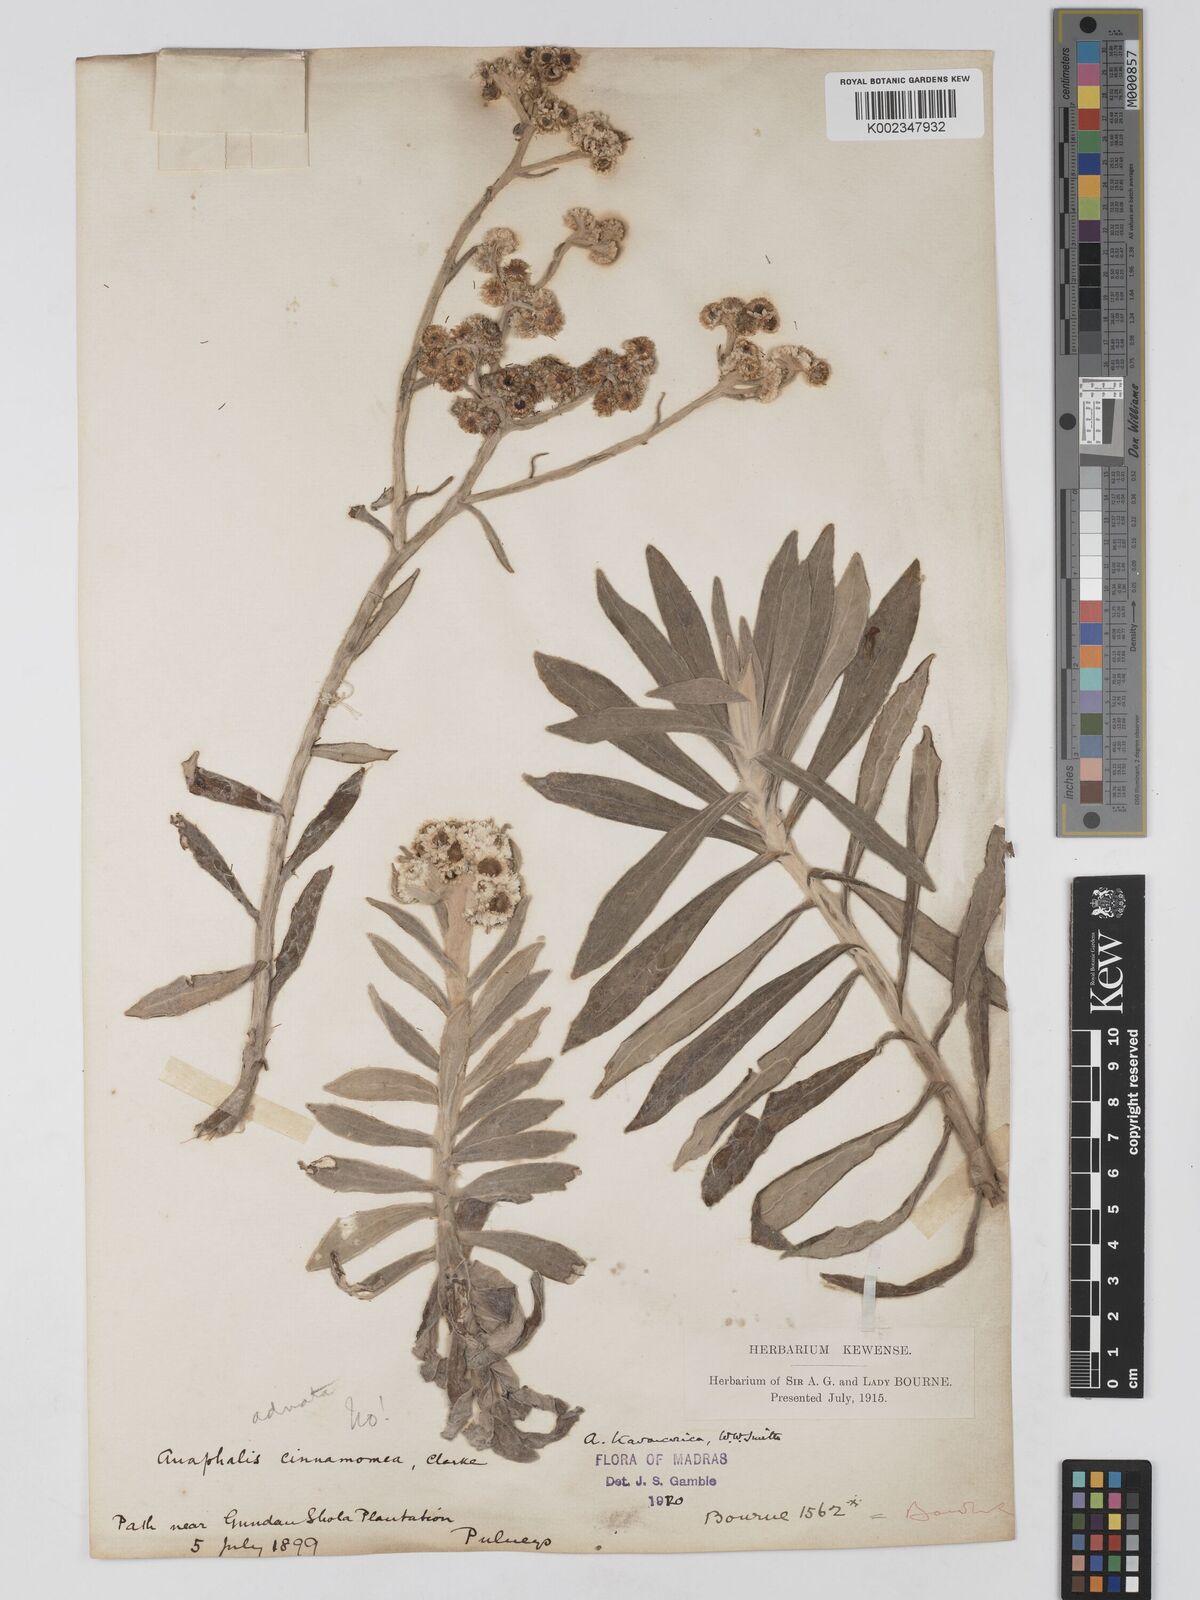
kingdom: Plantae
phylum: Tracheophyta
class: Magnoliopsida
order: Asterales
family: Asteraceae
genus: Anaphalis
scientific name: Anaphalis travancorica
